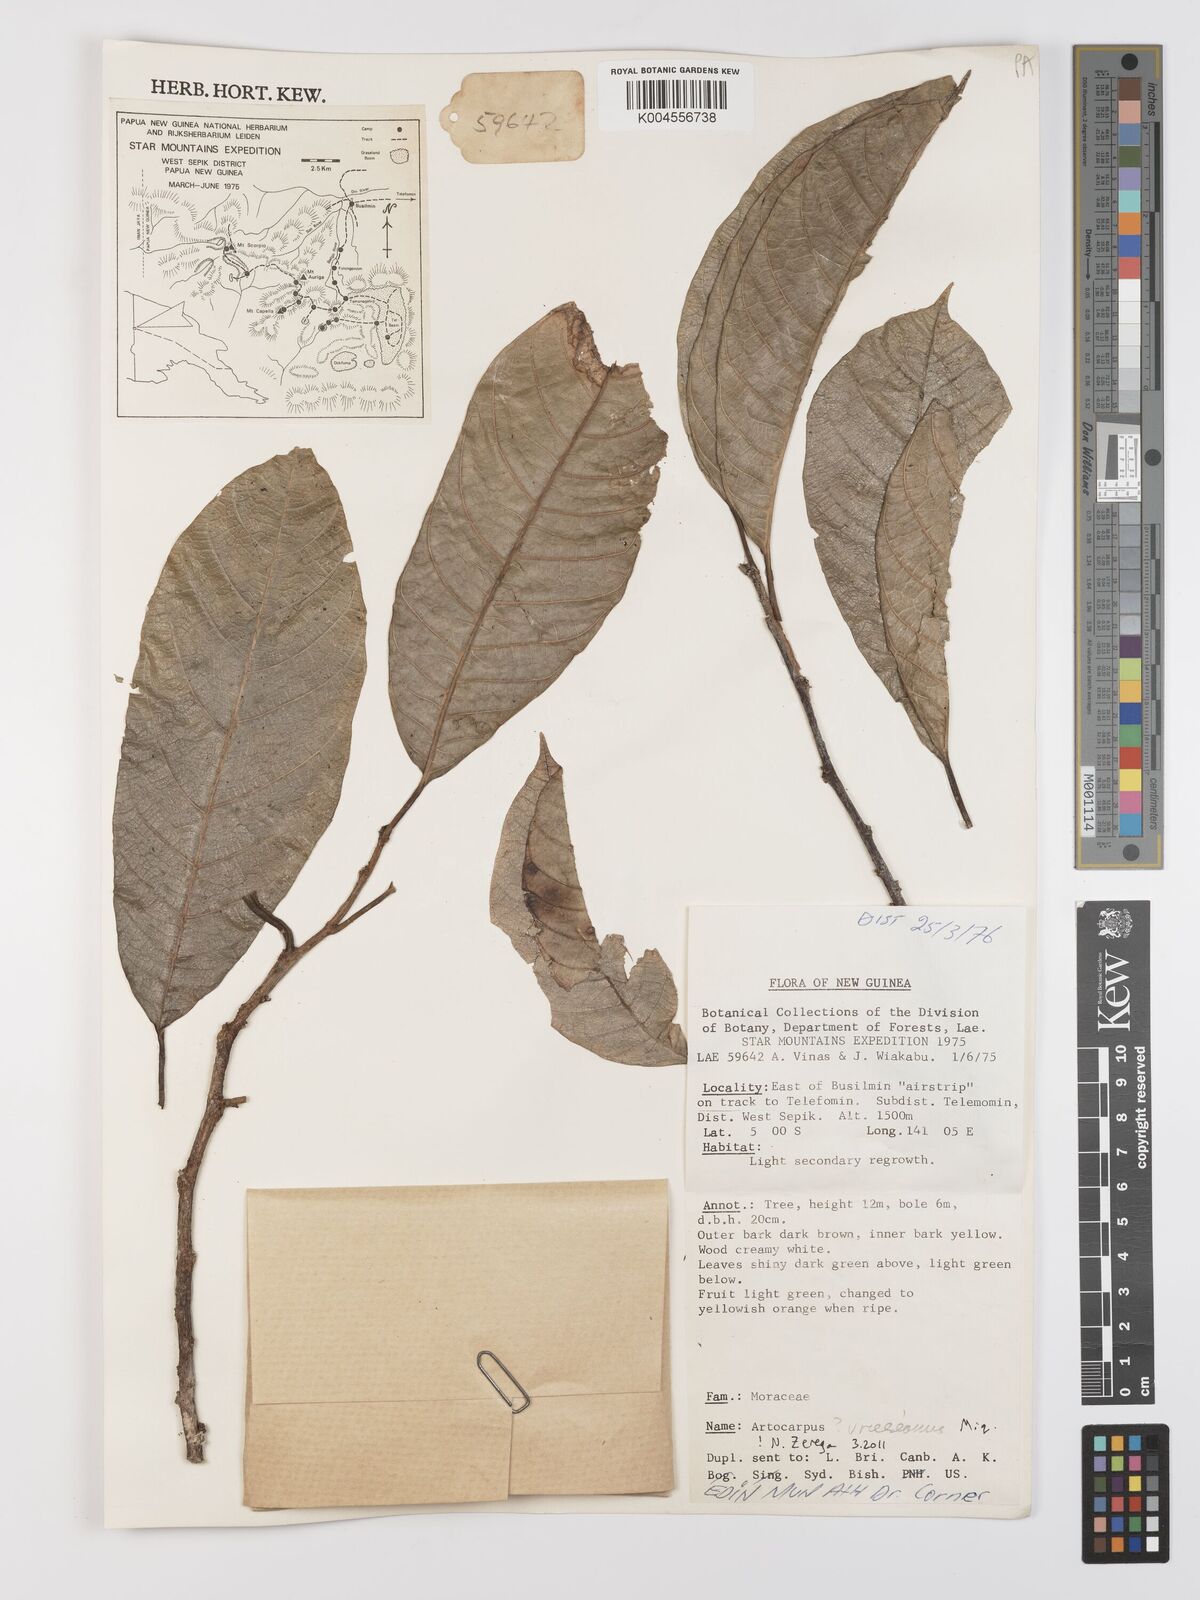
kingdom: Plantae
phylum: Tracheophyta
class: Magnoliopsida
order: Rosales
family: Moraceae
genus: Artocarpus
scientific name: Artocarpus vrieseanus
